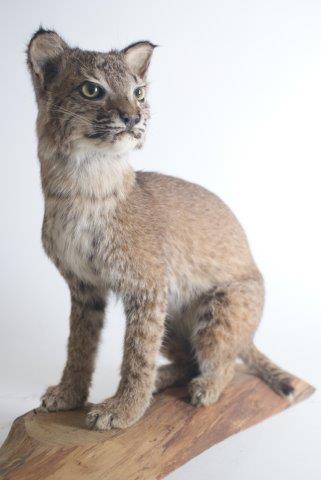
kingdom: Animalia
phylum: Chordata
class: Mammalia
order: Carnivora
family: Felidae
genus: Lynx
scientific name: Lynx lynx
